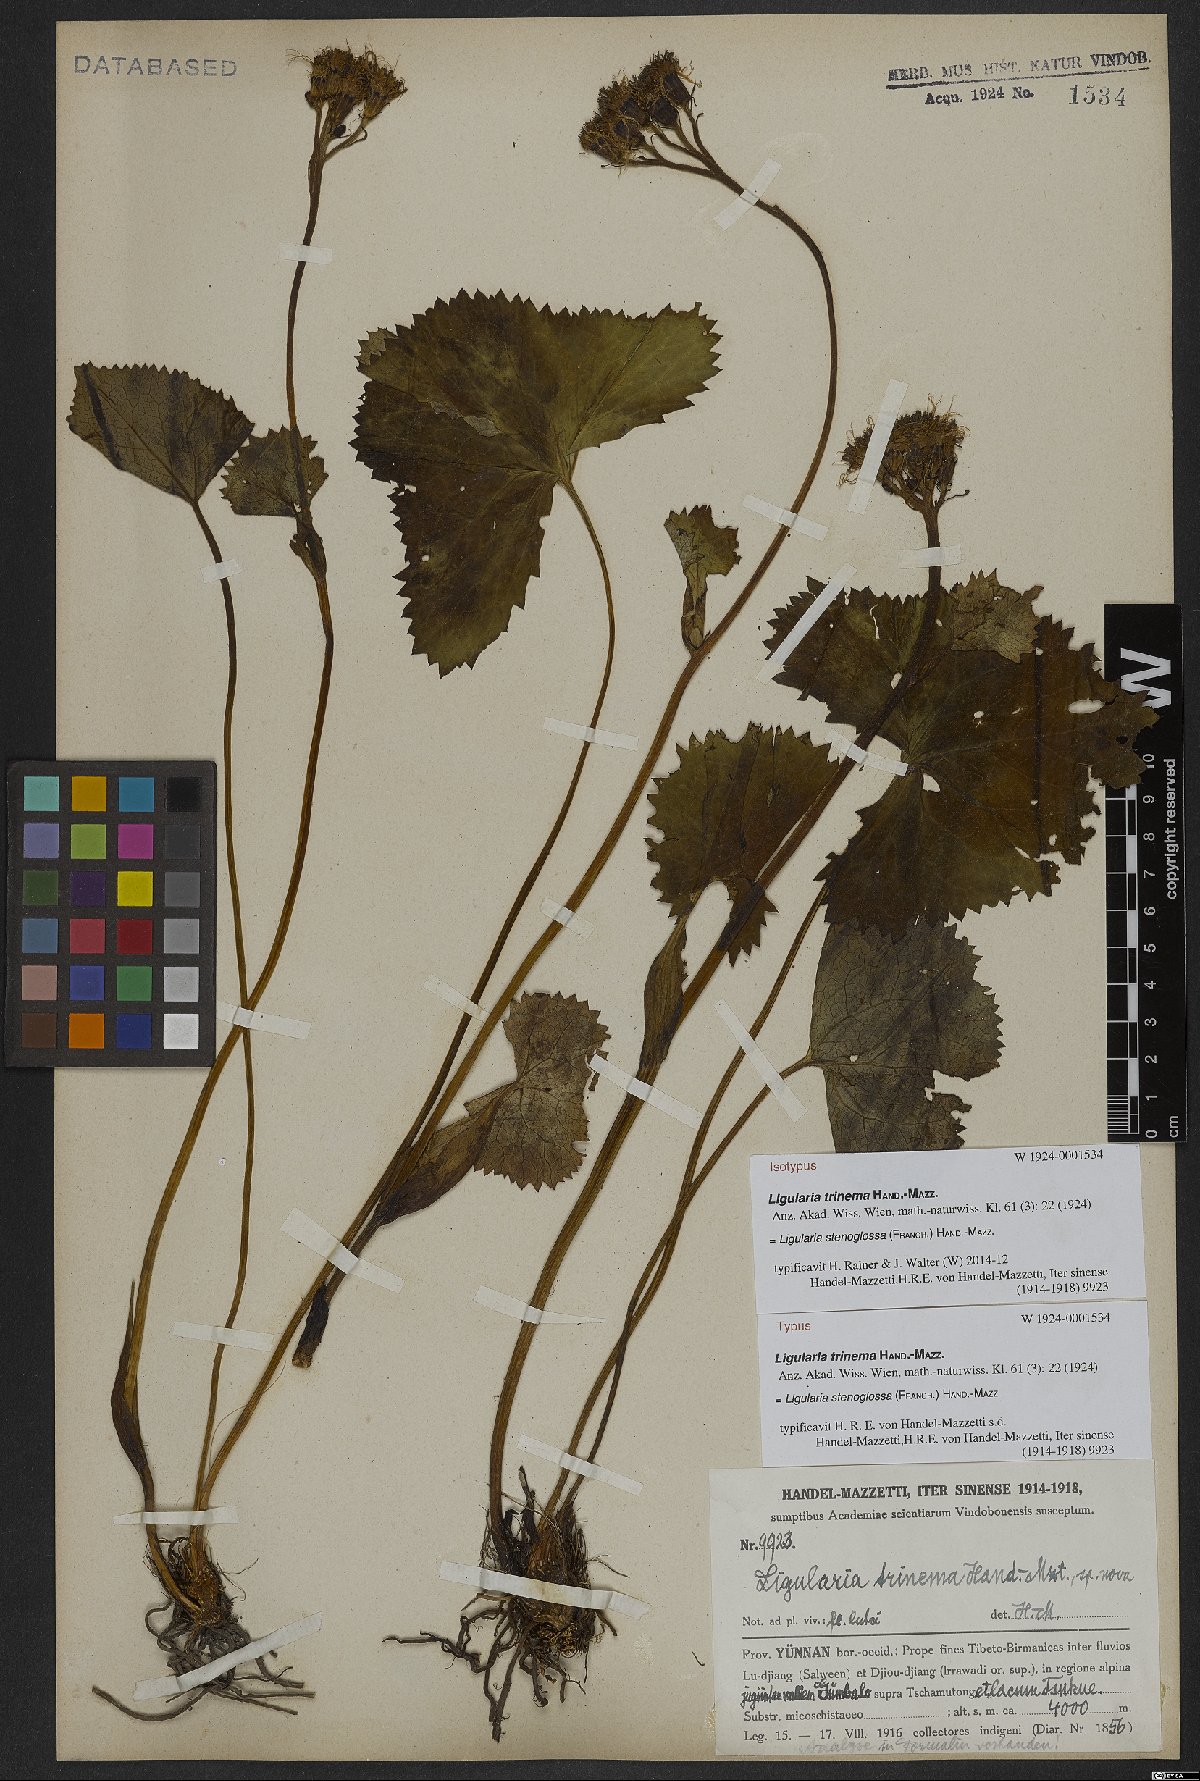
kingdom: Plantae
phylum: Tracheophyta
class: Magnoliopsida
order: Asterales
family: Asteraceae
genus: Ligularia
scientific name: Ligularia stenoglossa
